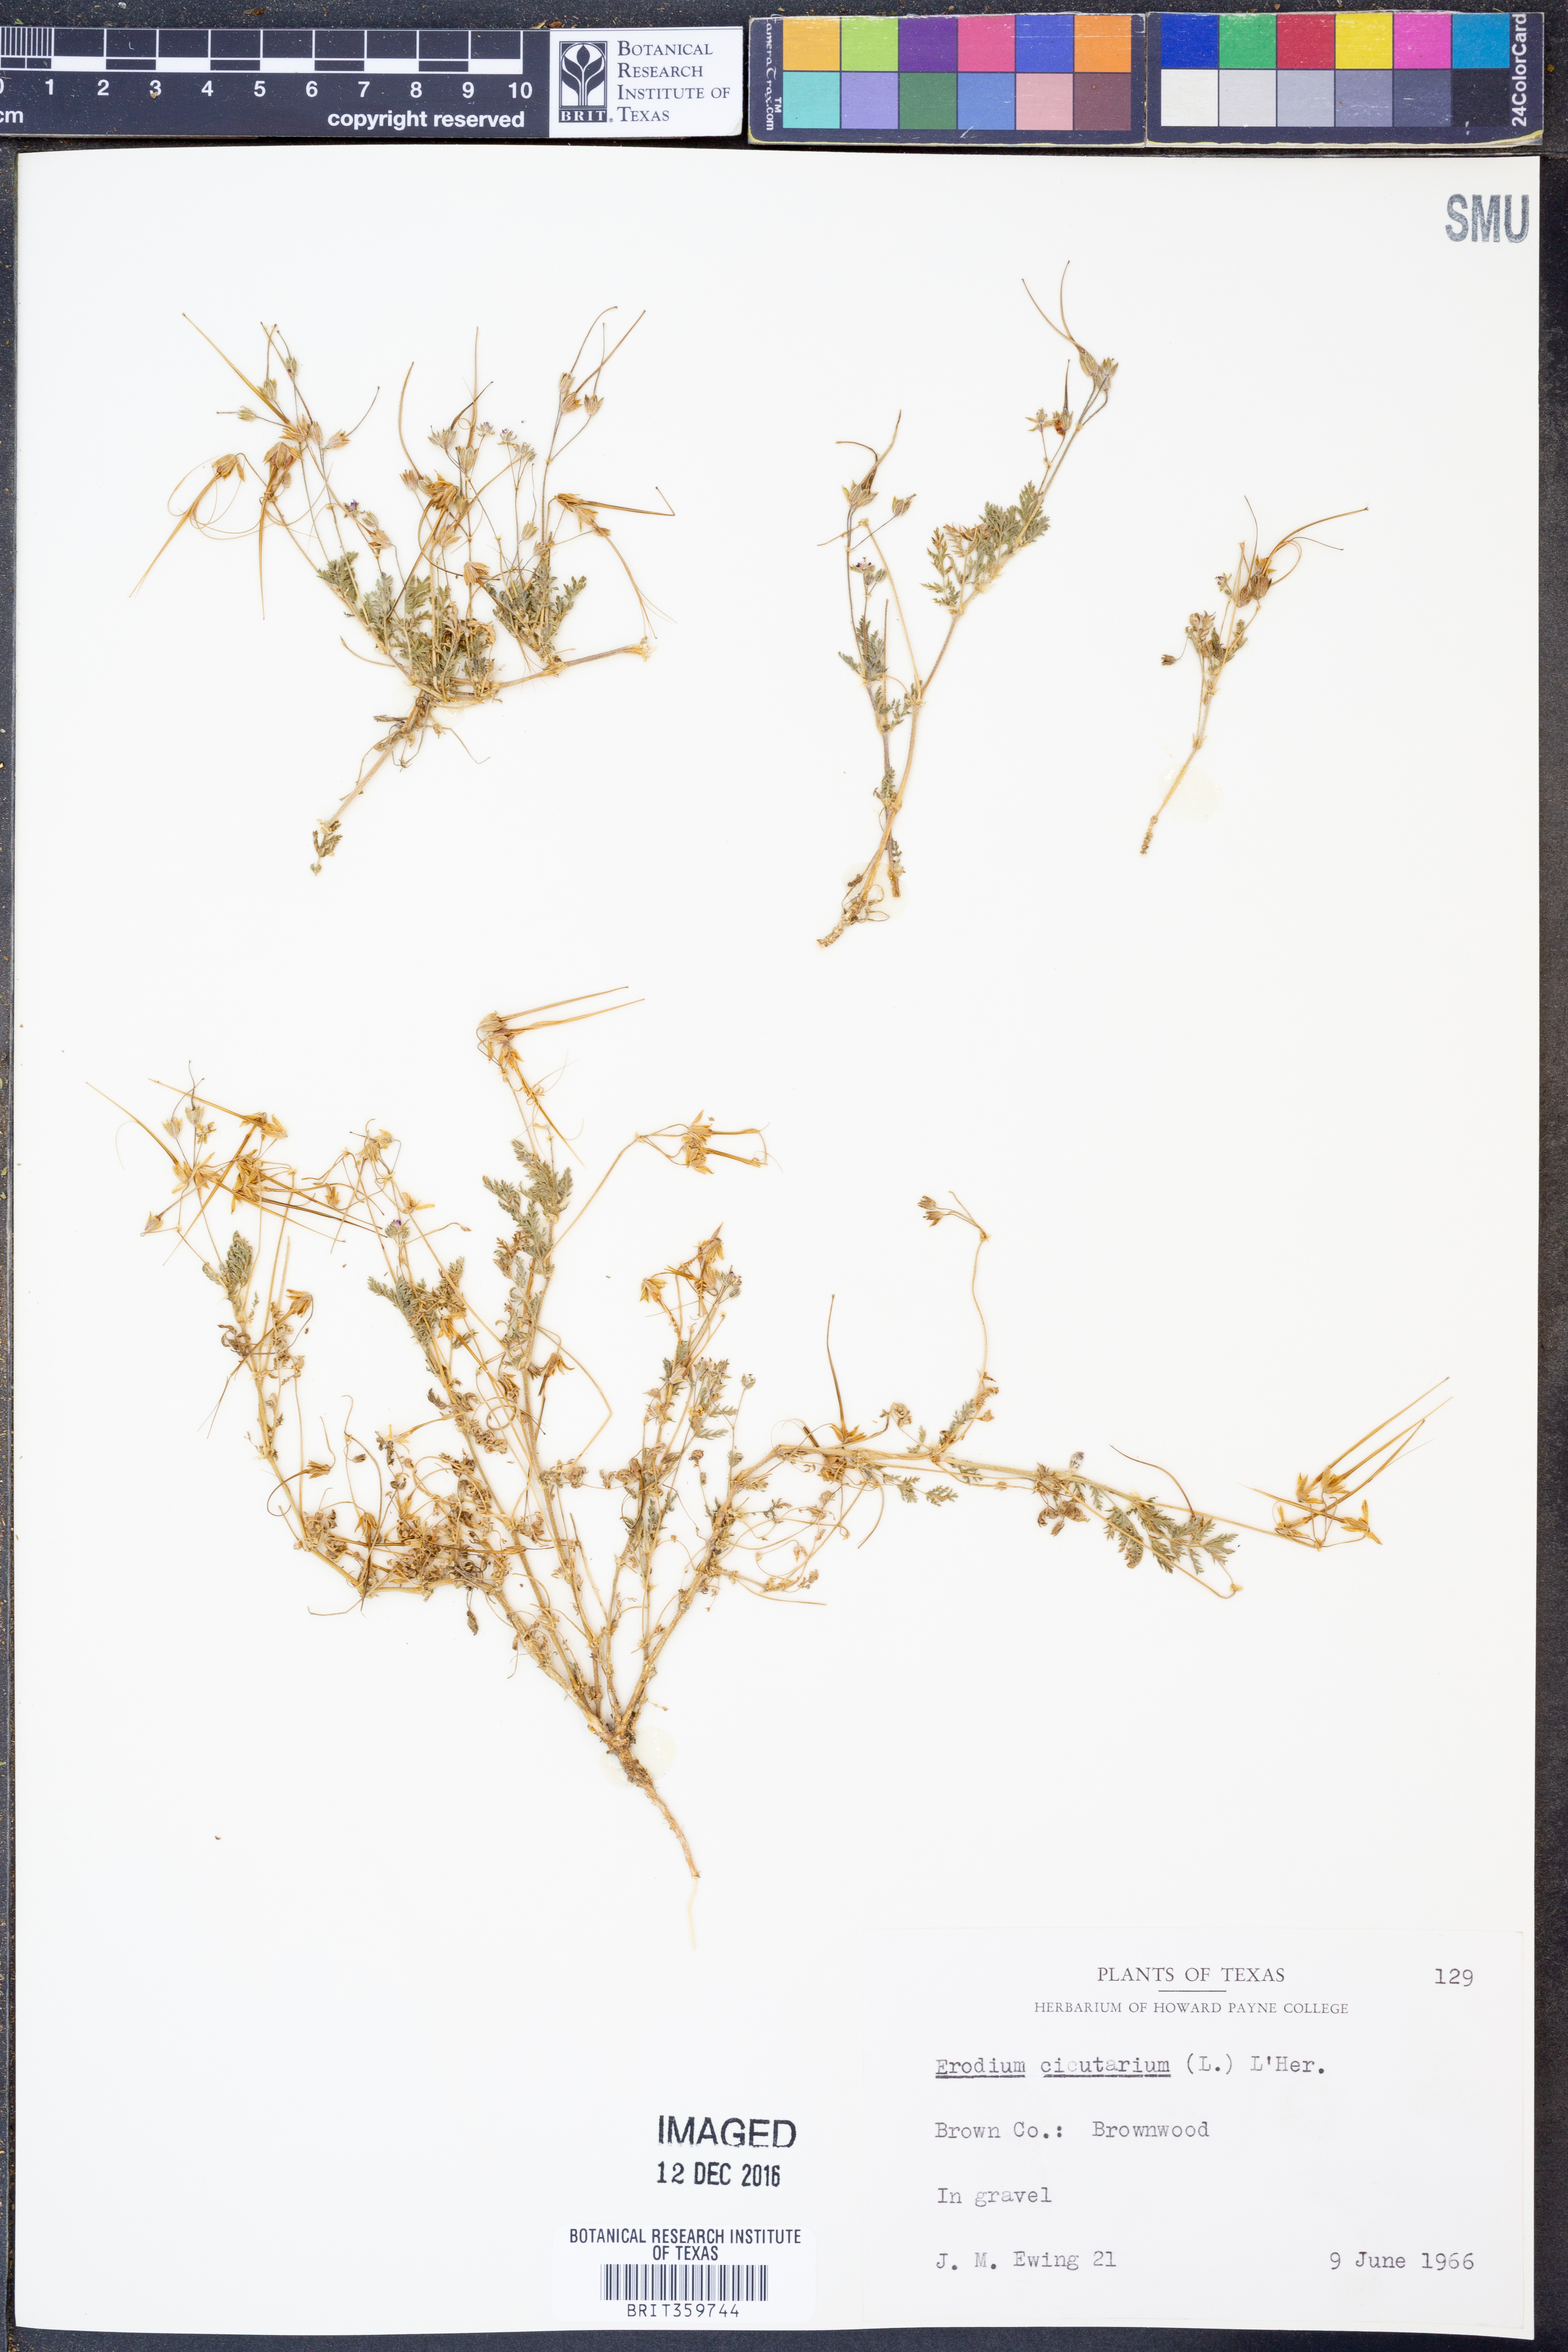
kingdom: Plantae
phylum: Tracheophyta
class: Magnoliopsida
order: Geraniales
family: Geraniaceae
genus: Erodium
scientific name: Erodium cicutarium
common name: Common stork's-bill
